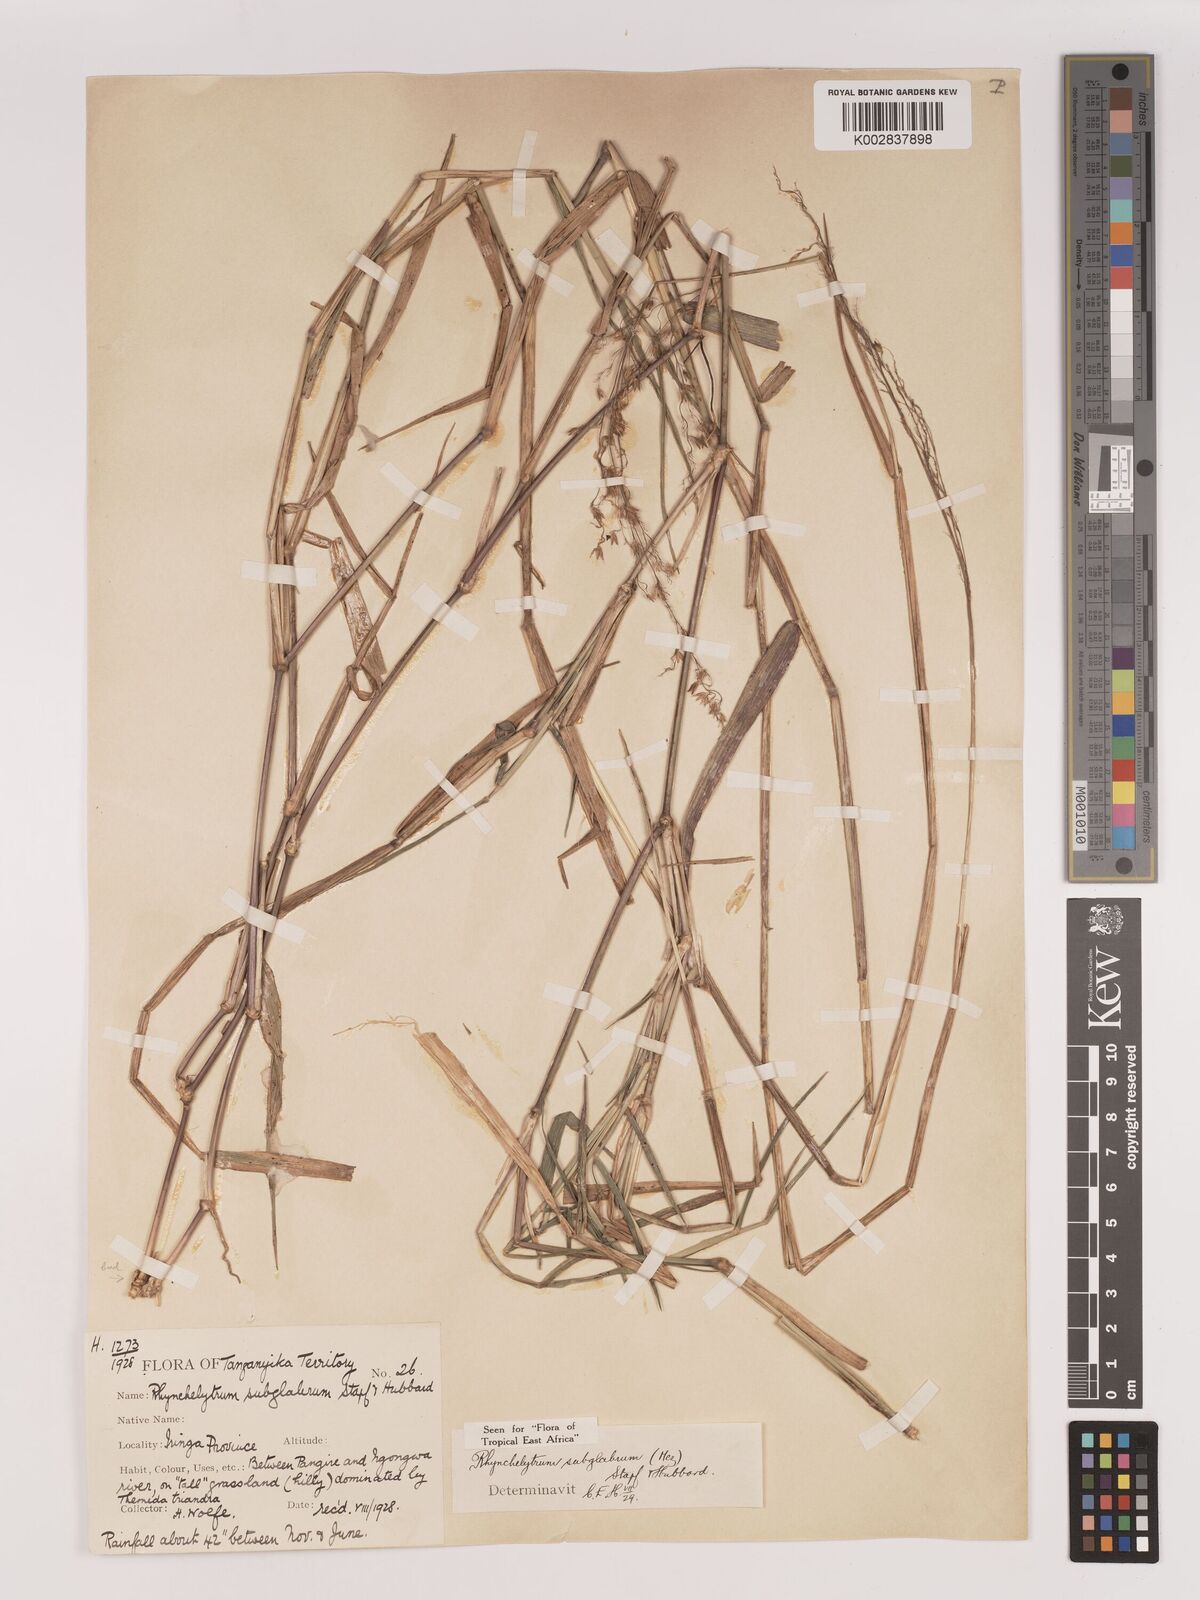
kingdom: Plantae
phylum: Tracheophyta
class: Liliopsida
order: Poales
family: Poaceae
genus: Melinis
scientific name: Melinis subglabra
